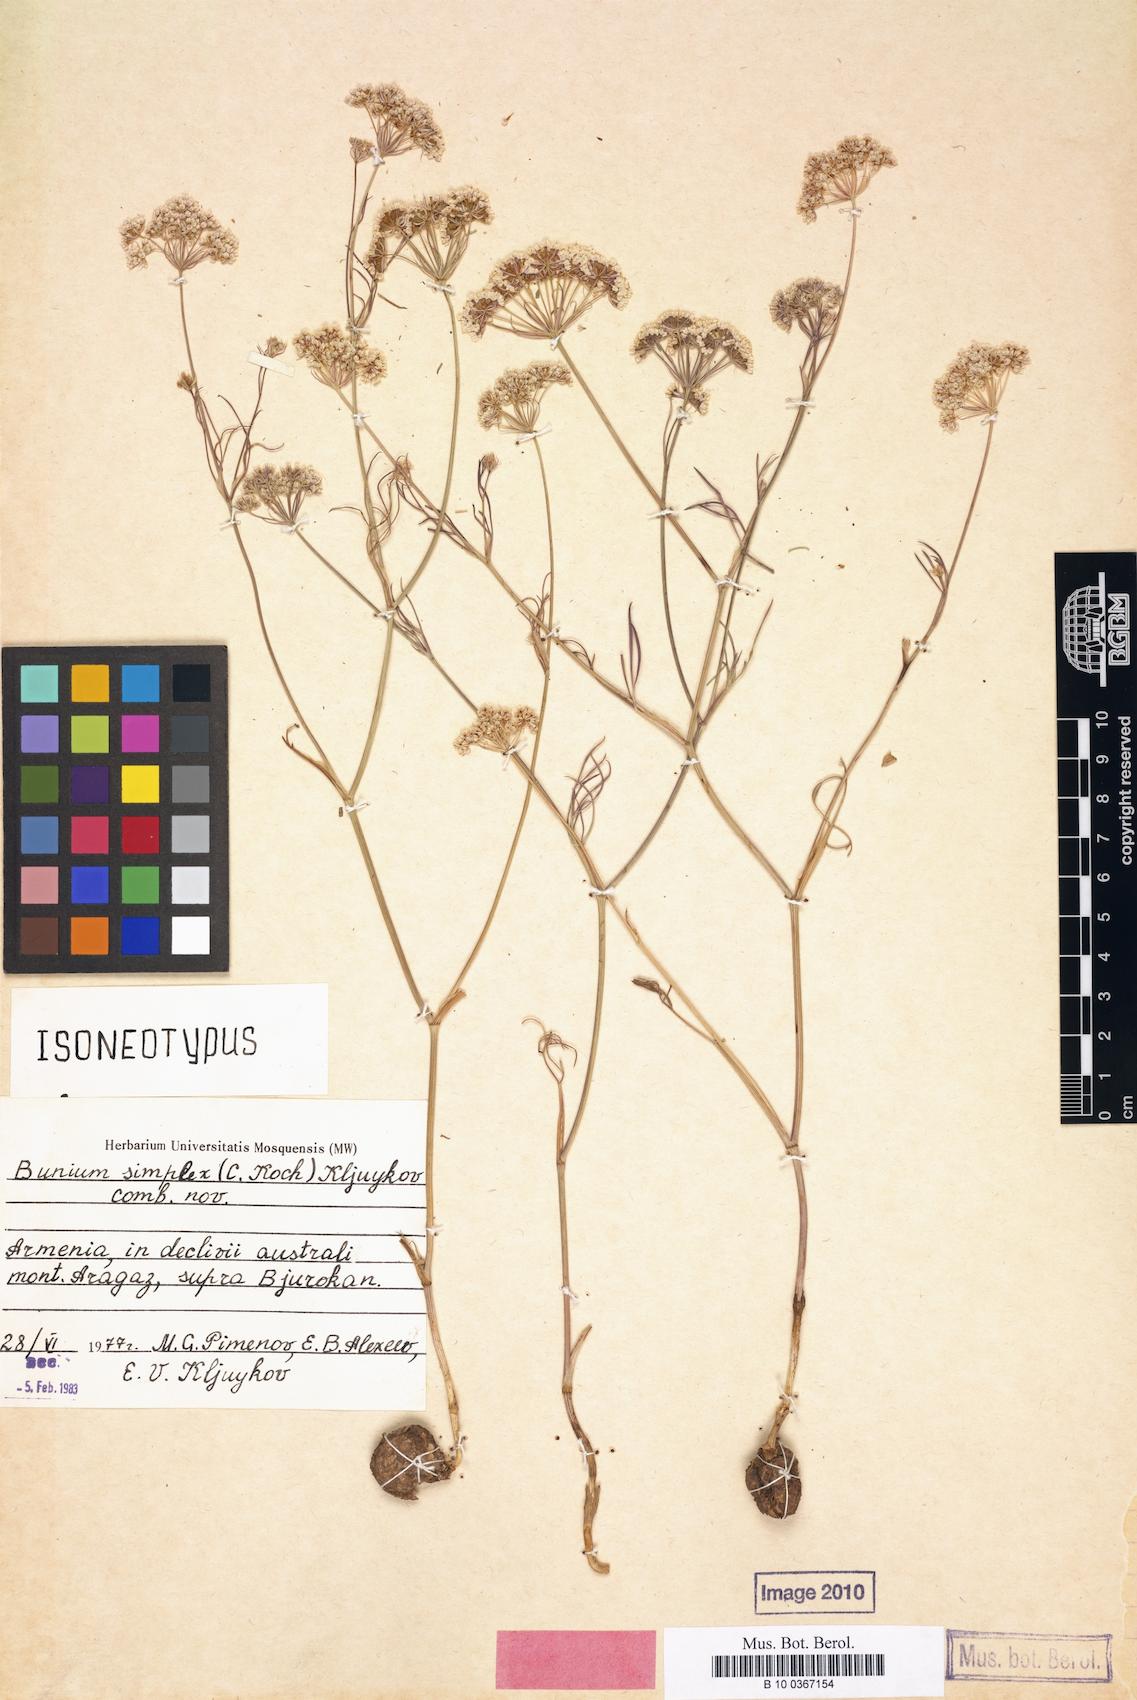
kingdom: Plantae
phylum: Tracheophyta
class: Magnoliopsida
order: Apiales
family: Apiaceae
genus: Bunium
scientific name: Bunium elegans
